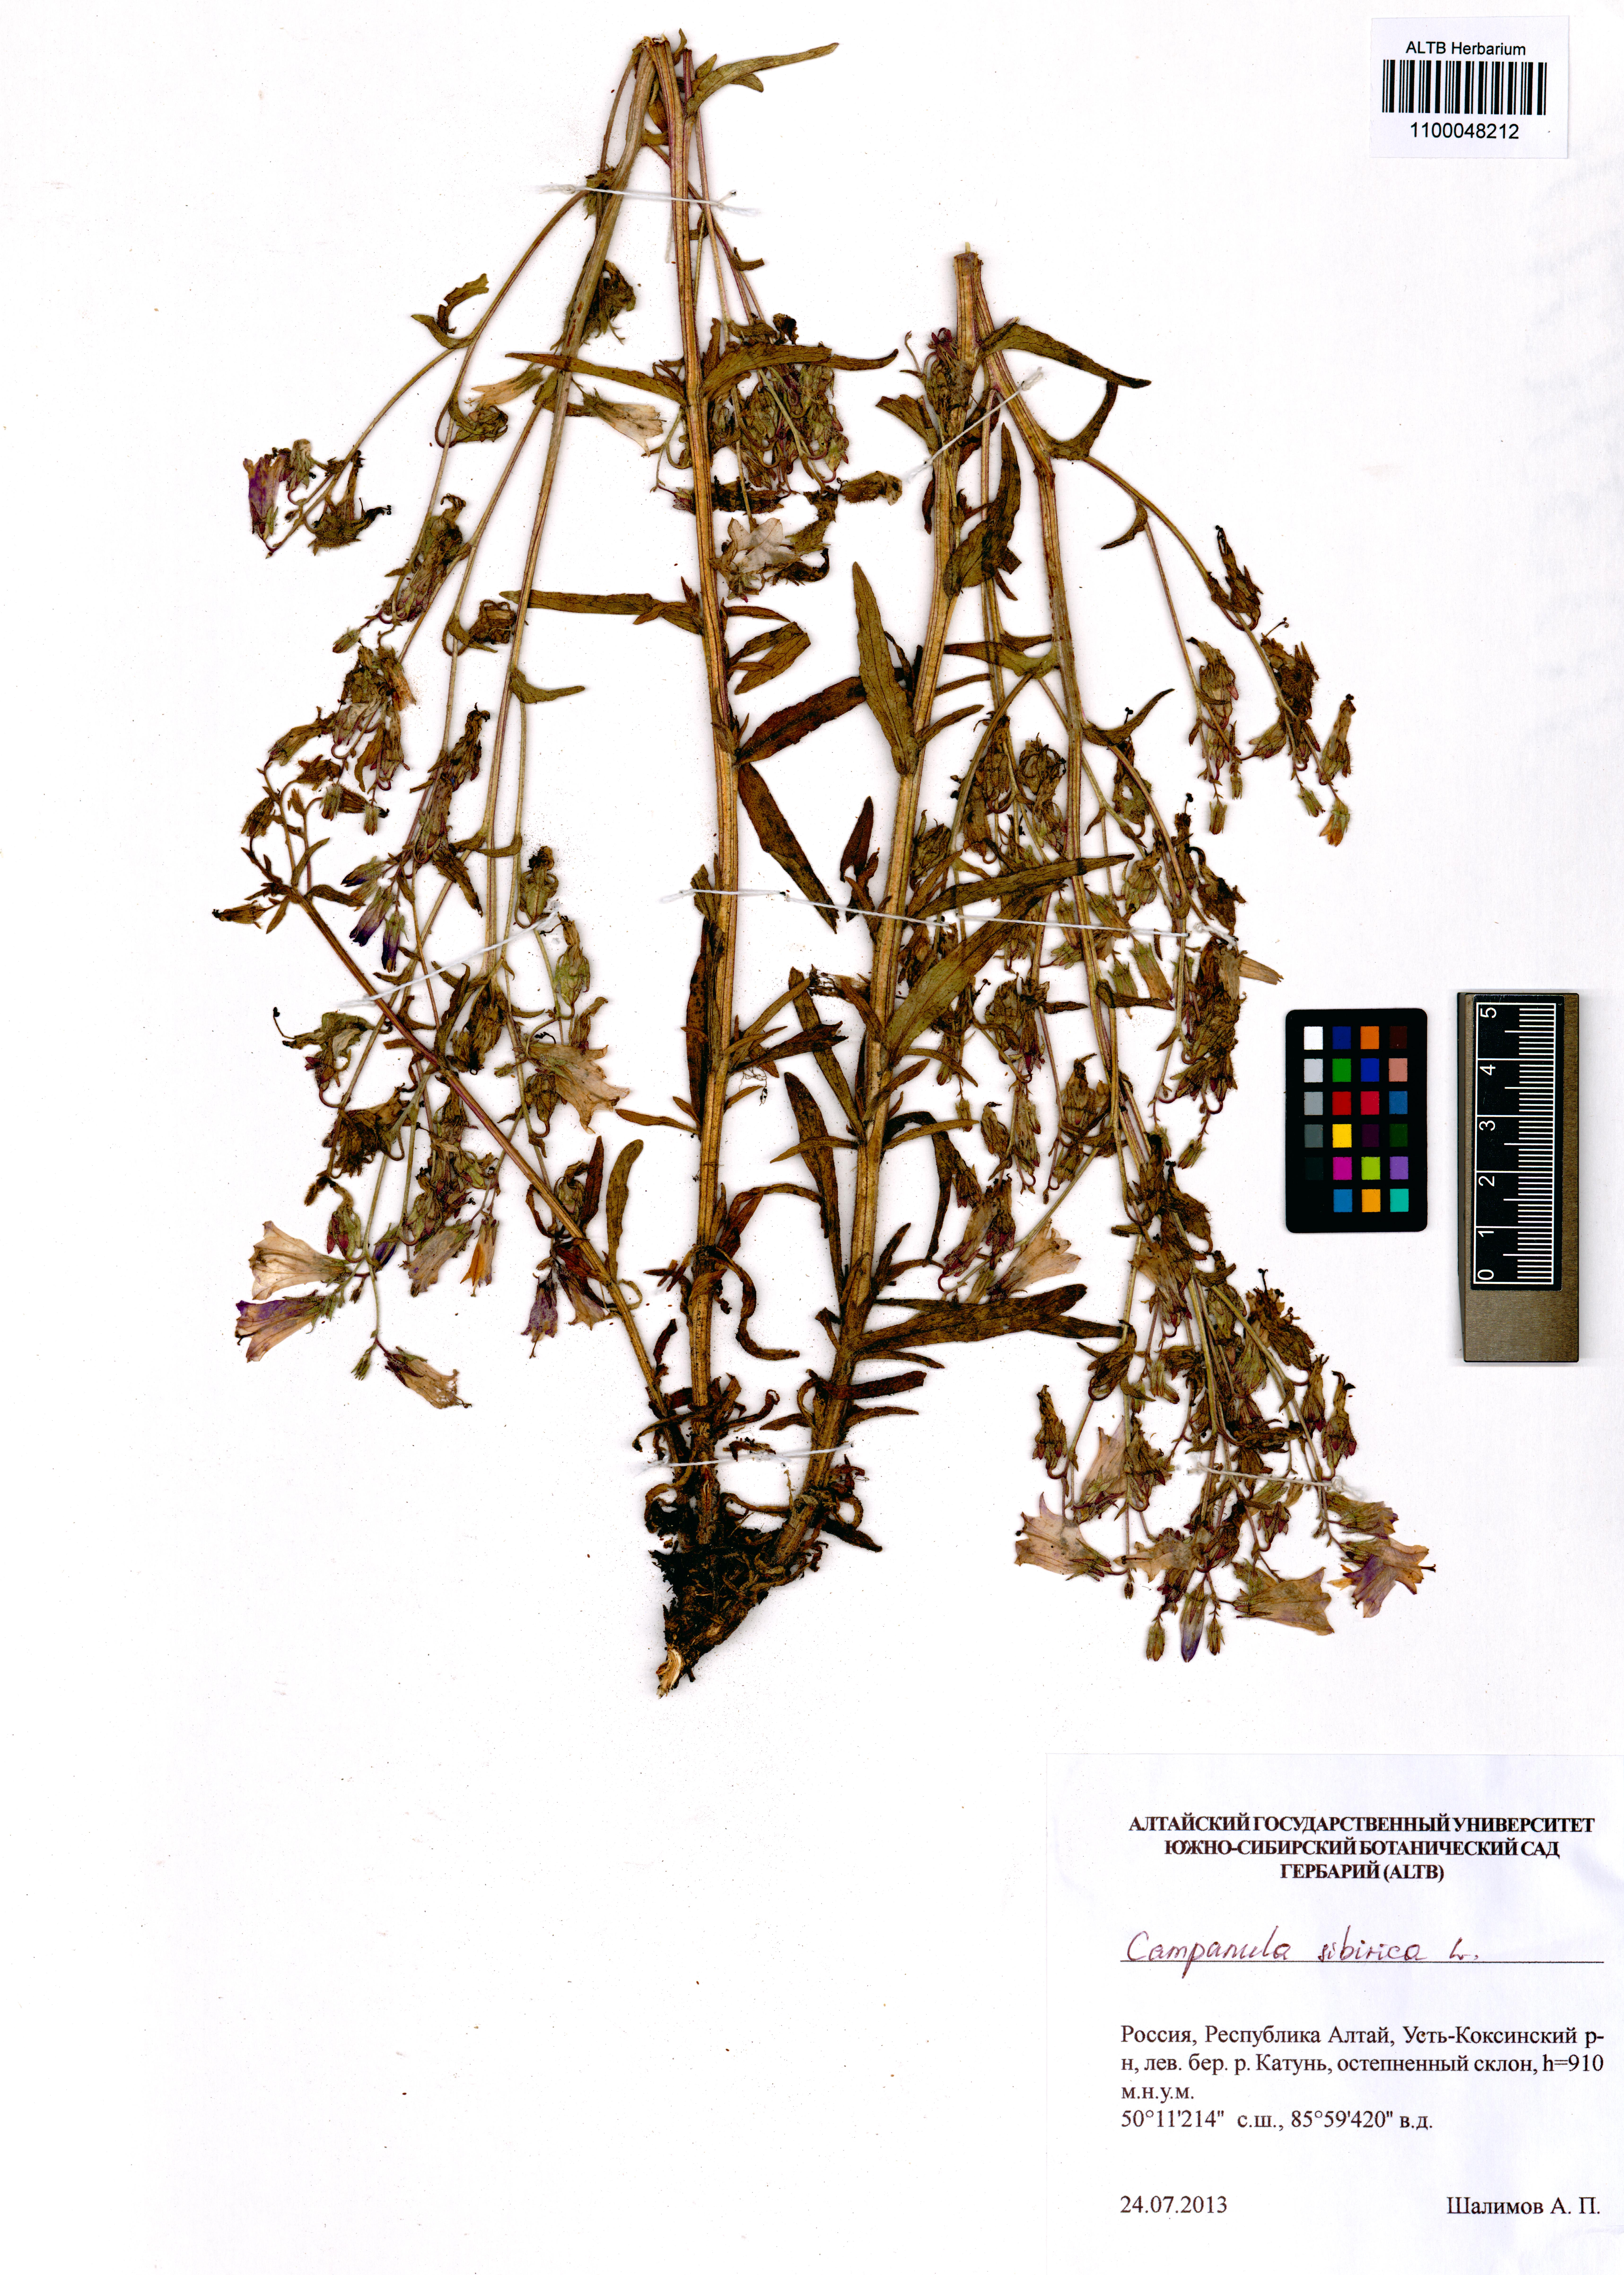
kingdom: Plantae
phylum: Tracheophyta
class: Magnoliopsida
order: Asterales
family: Campanulaceae
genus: Campanula
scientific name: Campanula sibirica
